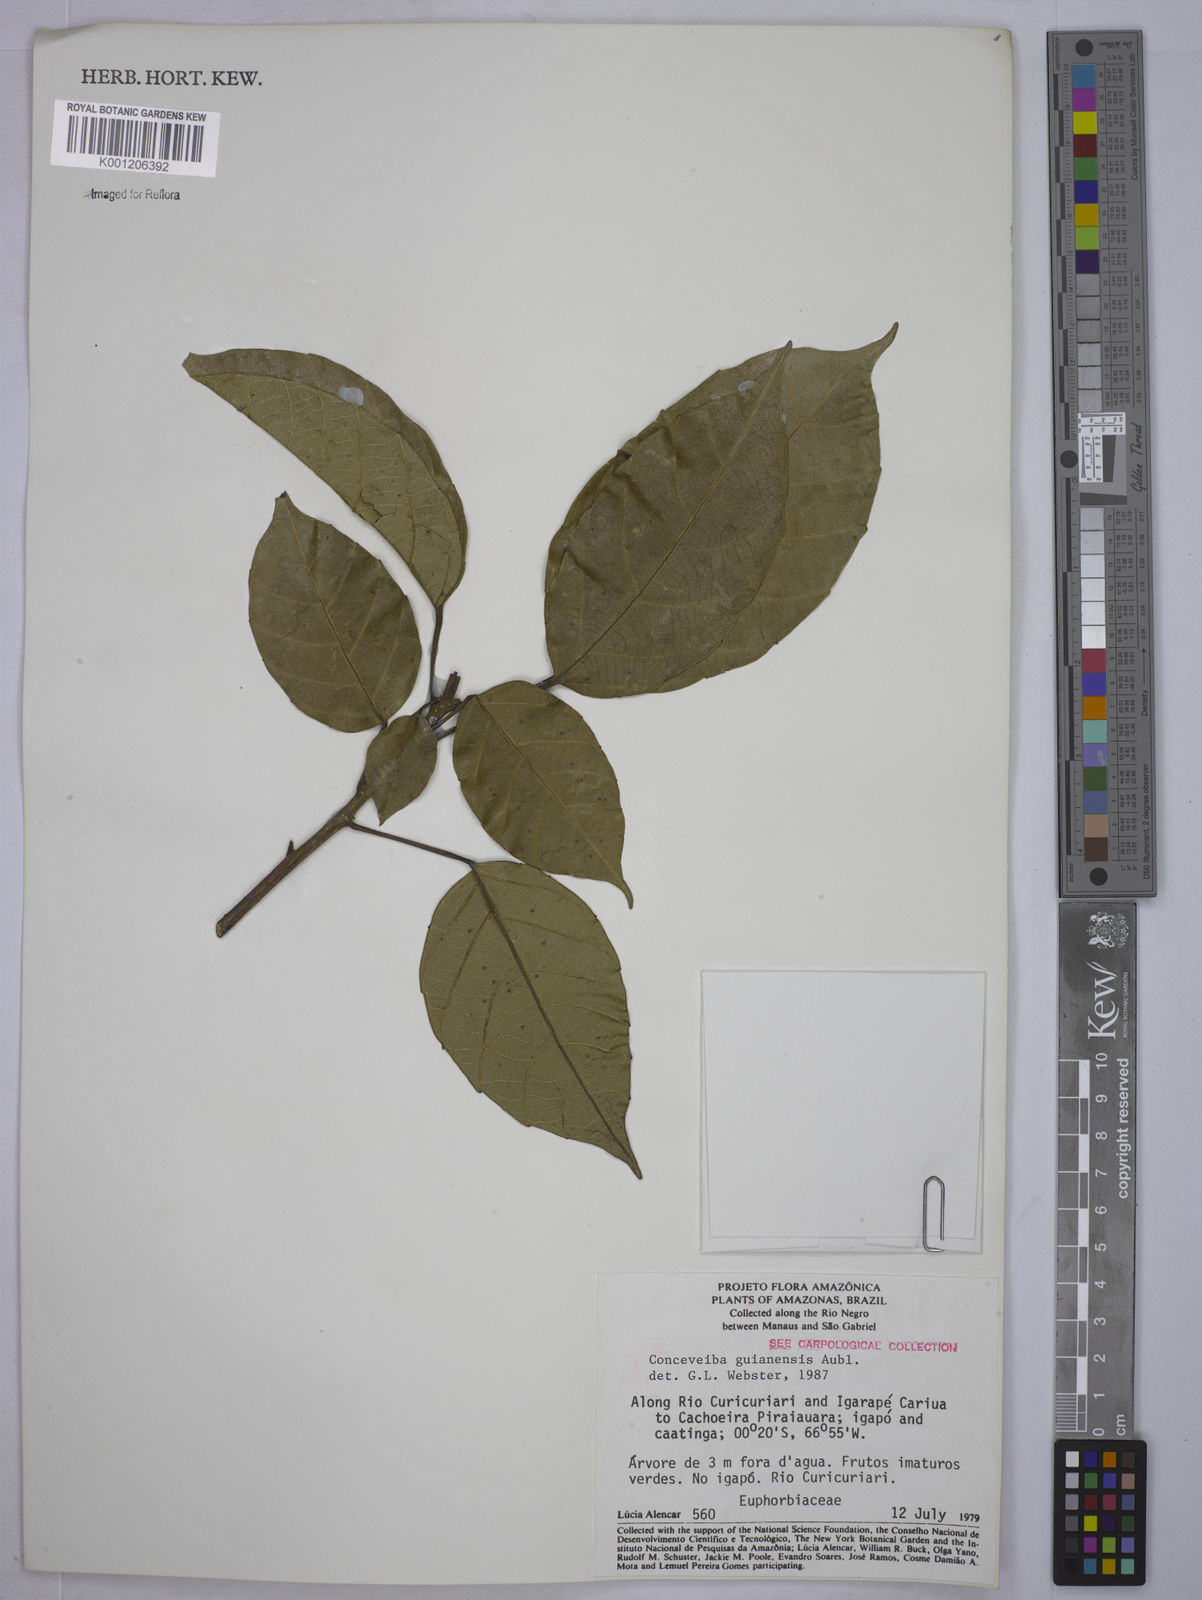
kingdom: Plantae
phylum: Tracheophyta
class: Magnoliopsida
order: Malpighiales
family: Euphorbiaceae
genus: Conceveiba
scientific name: Conceveiba guianensis
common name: Poatoru
